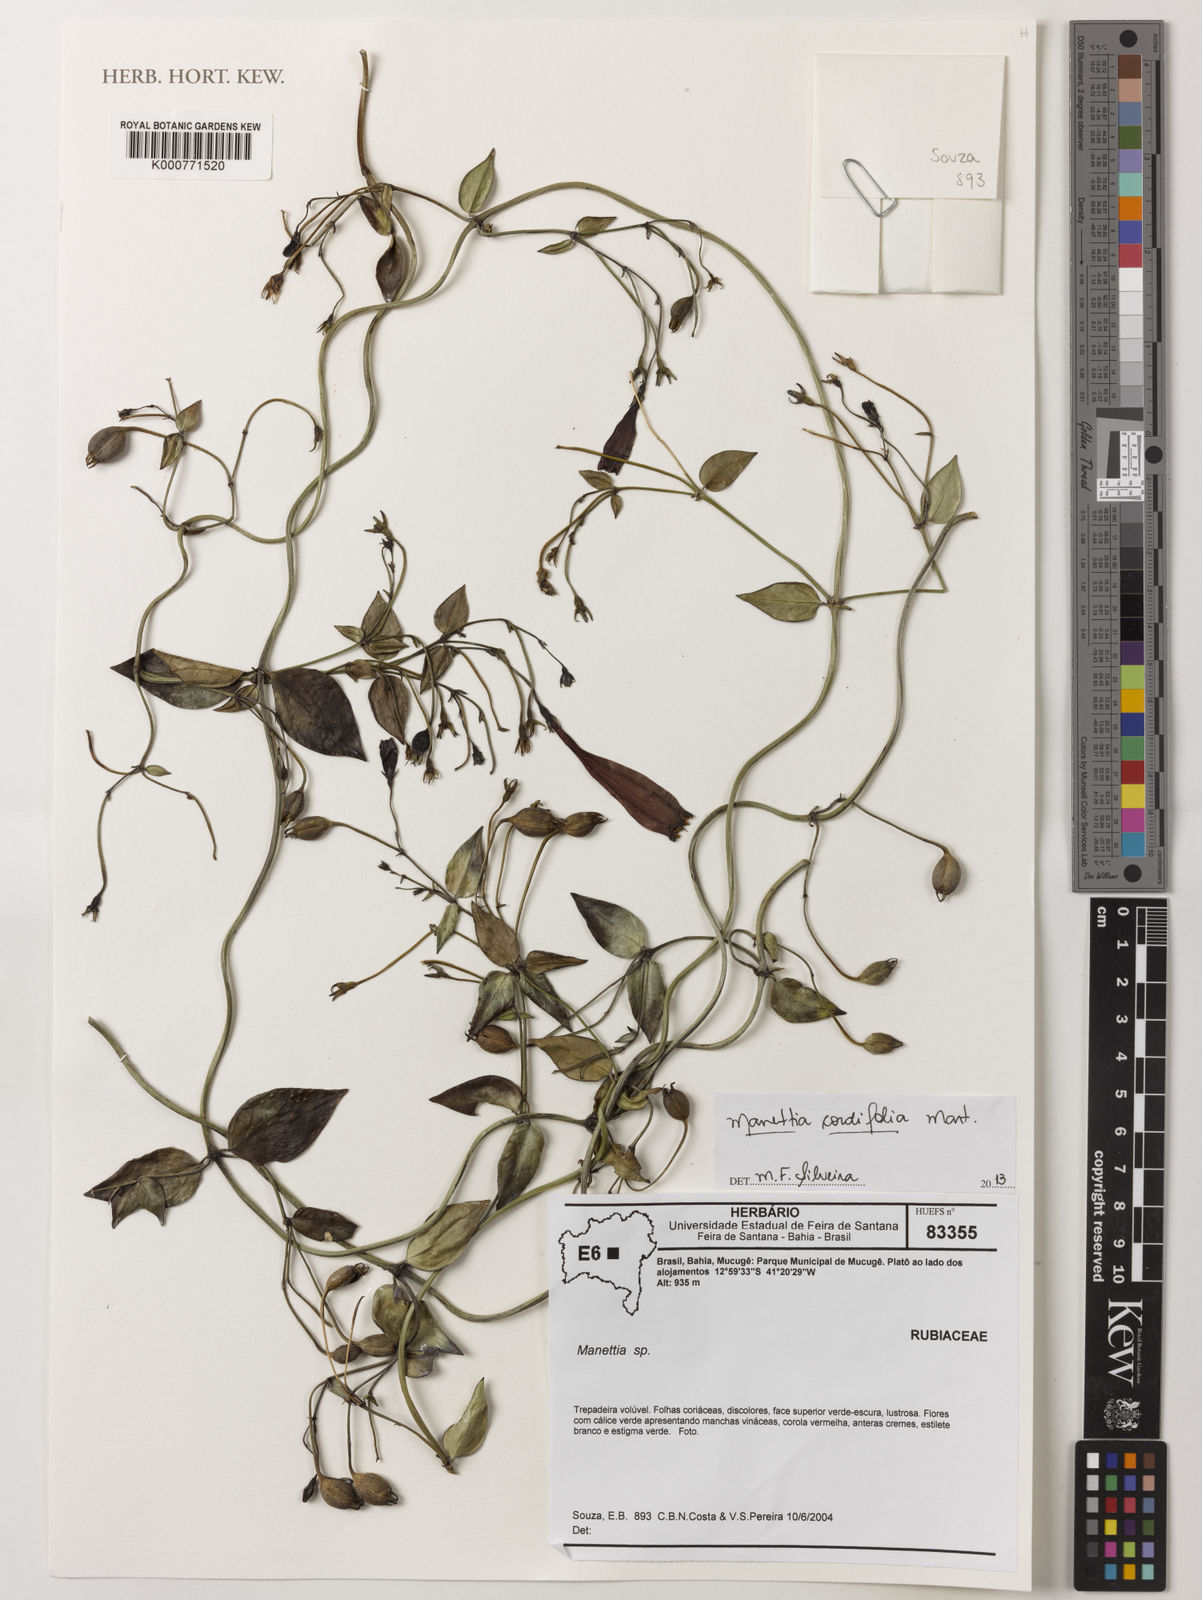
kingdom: Plantae
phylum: Tracheophyta
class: Magnoliopsida
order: Gentianales
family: Rubiaceae
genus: Manettia
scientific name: Manettia cordifolia
